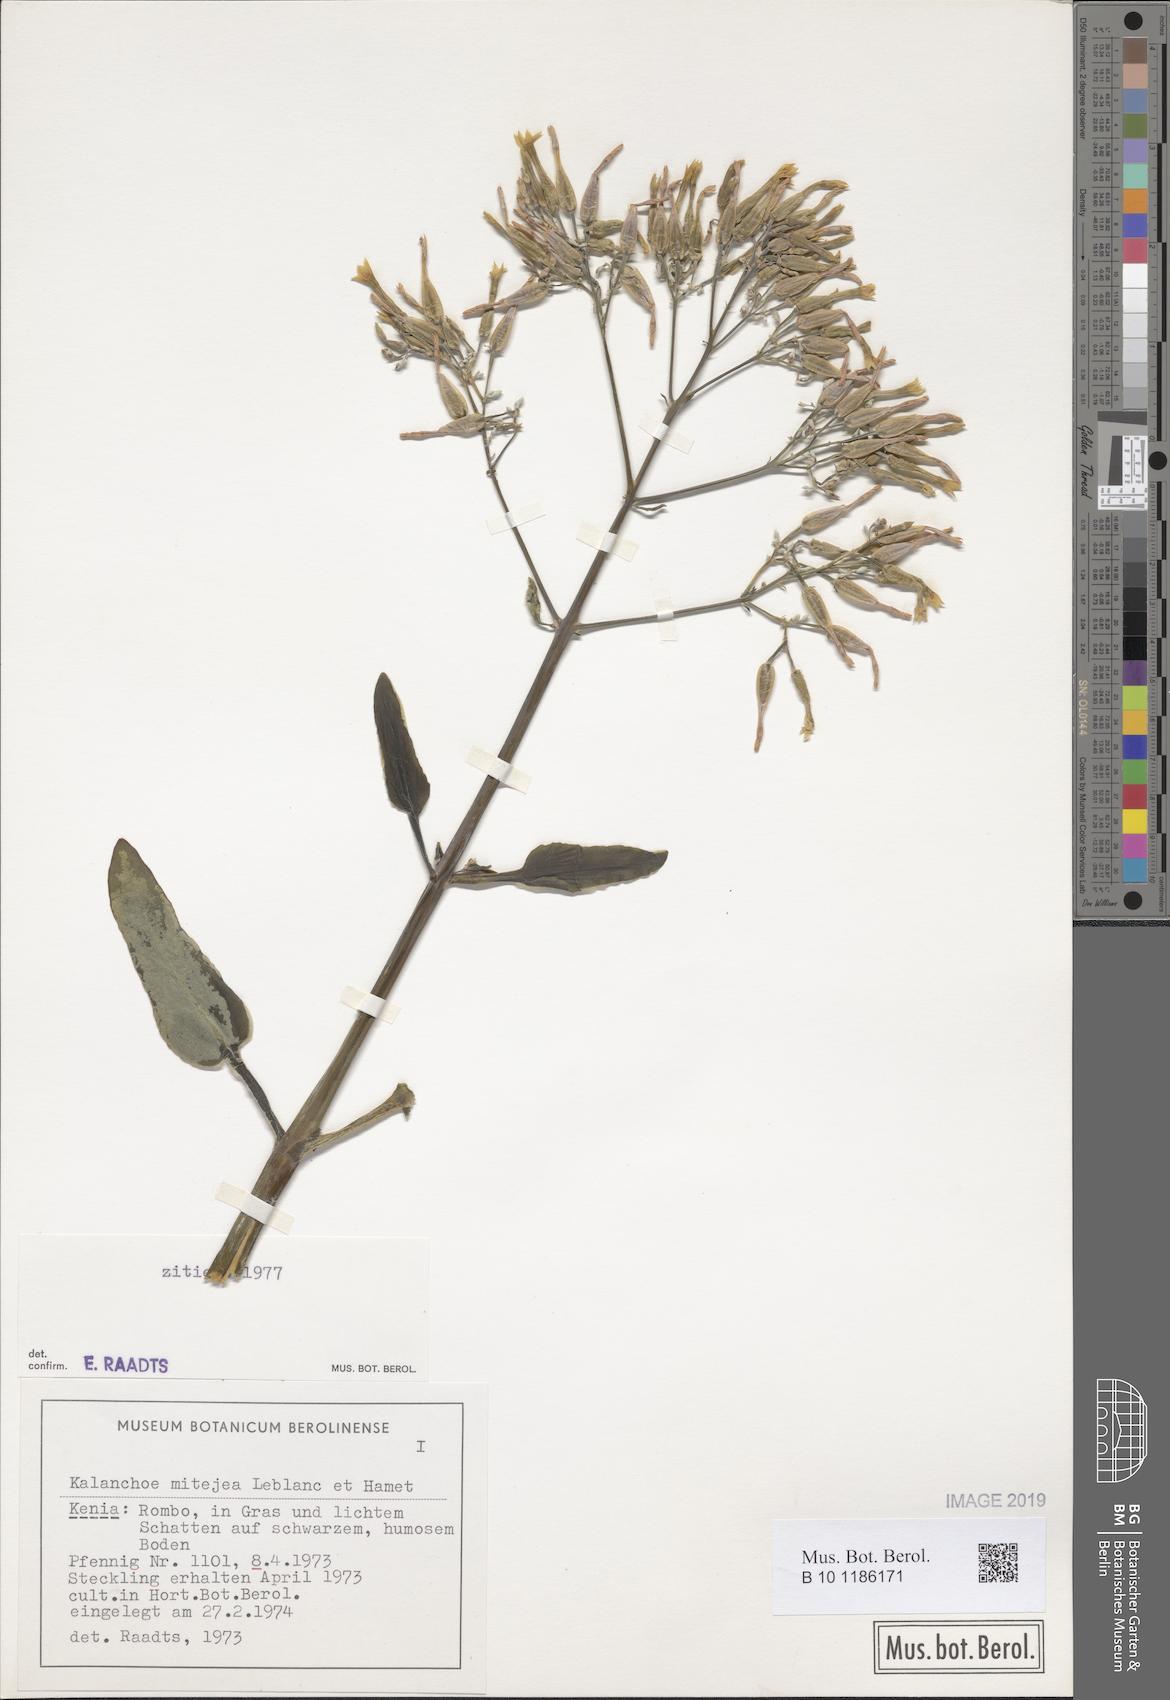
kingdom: Plantae
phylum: Tracheophyta
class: Magnoliopsida
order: Saxifragales
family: Crassulaceae
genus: Kalanchoe
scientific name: Kalanchoe mitejea
